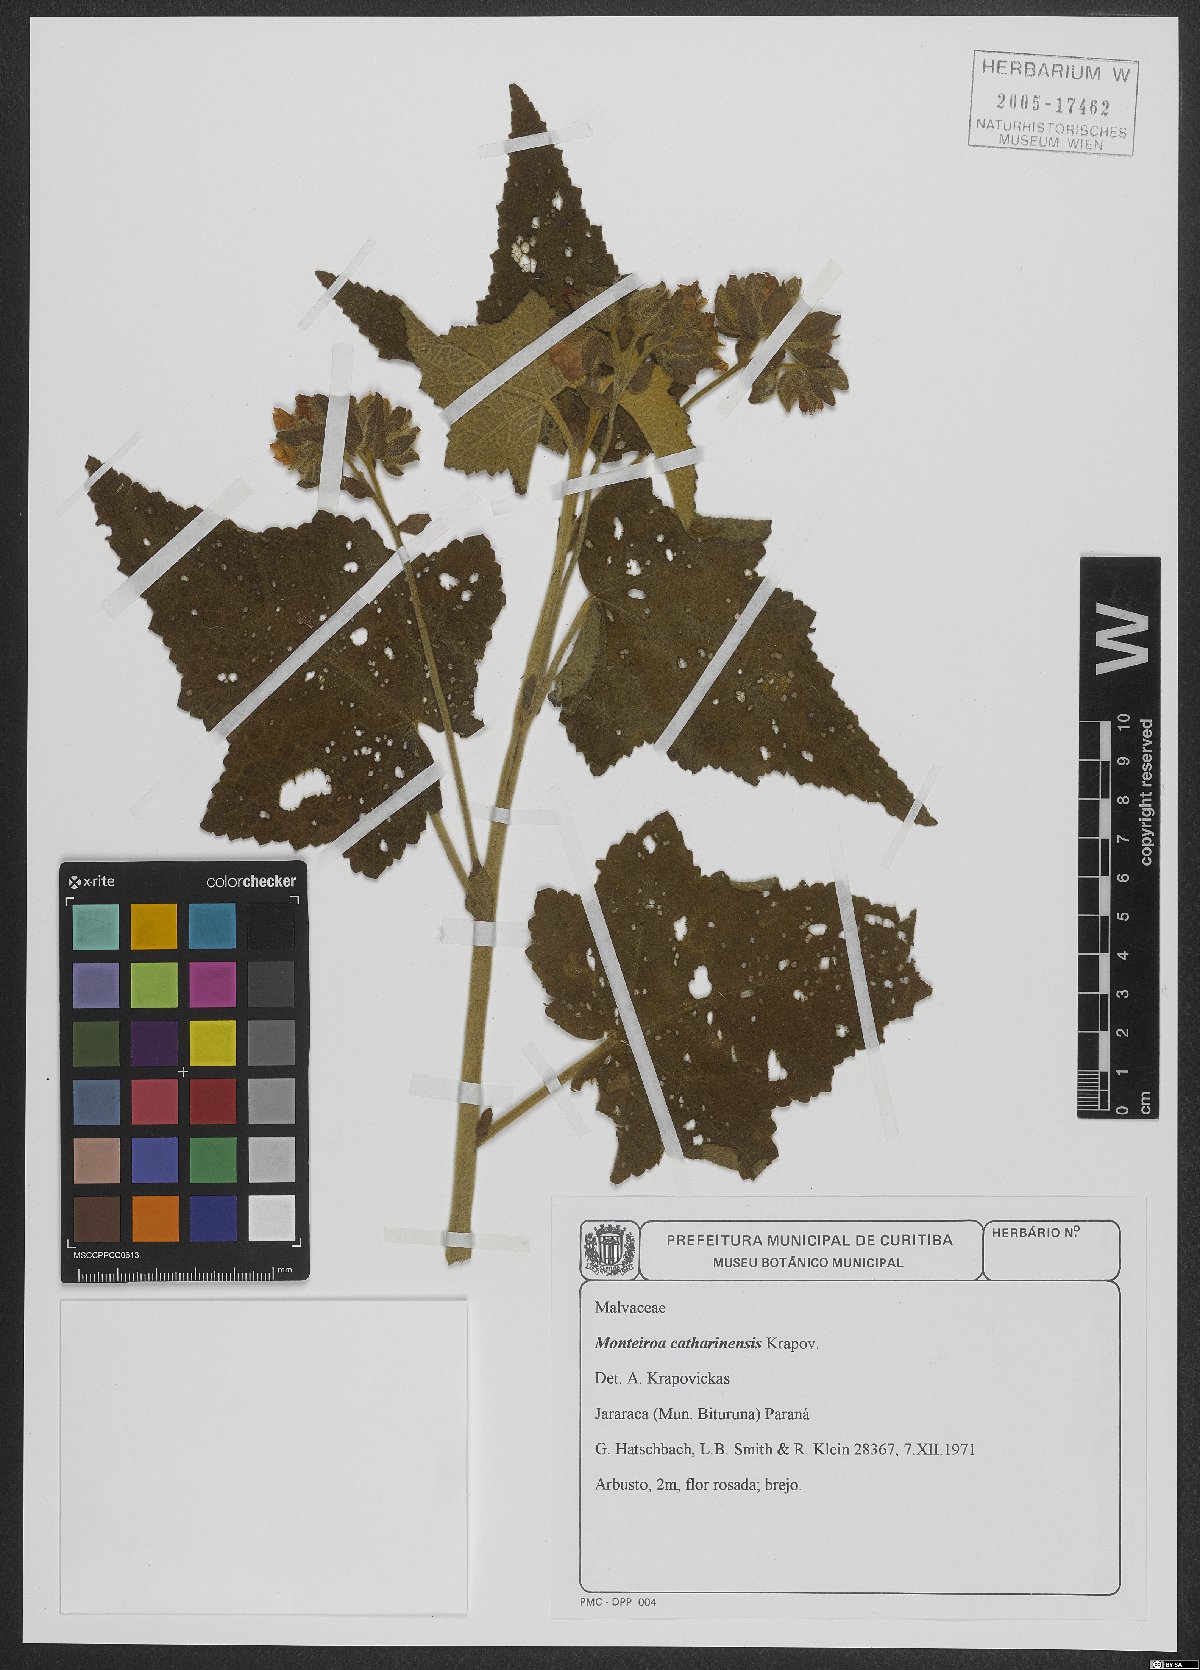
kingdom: Plantae
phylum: Tracheophyta
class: Magnoliopsida
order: Malvales
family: Malvaceae
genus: Monteiroa
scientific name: Monteiroa catharinensis
